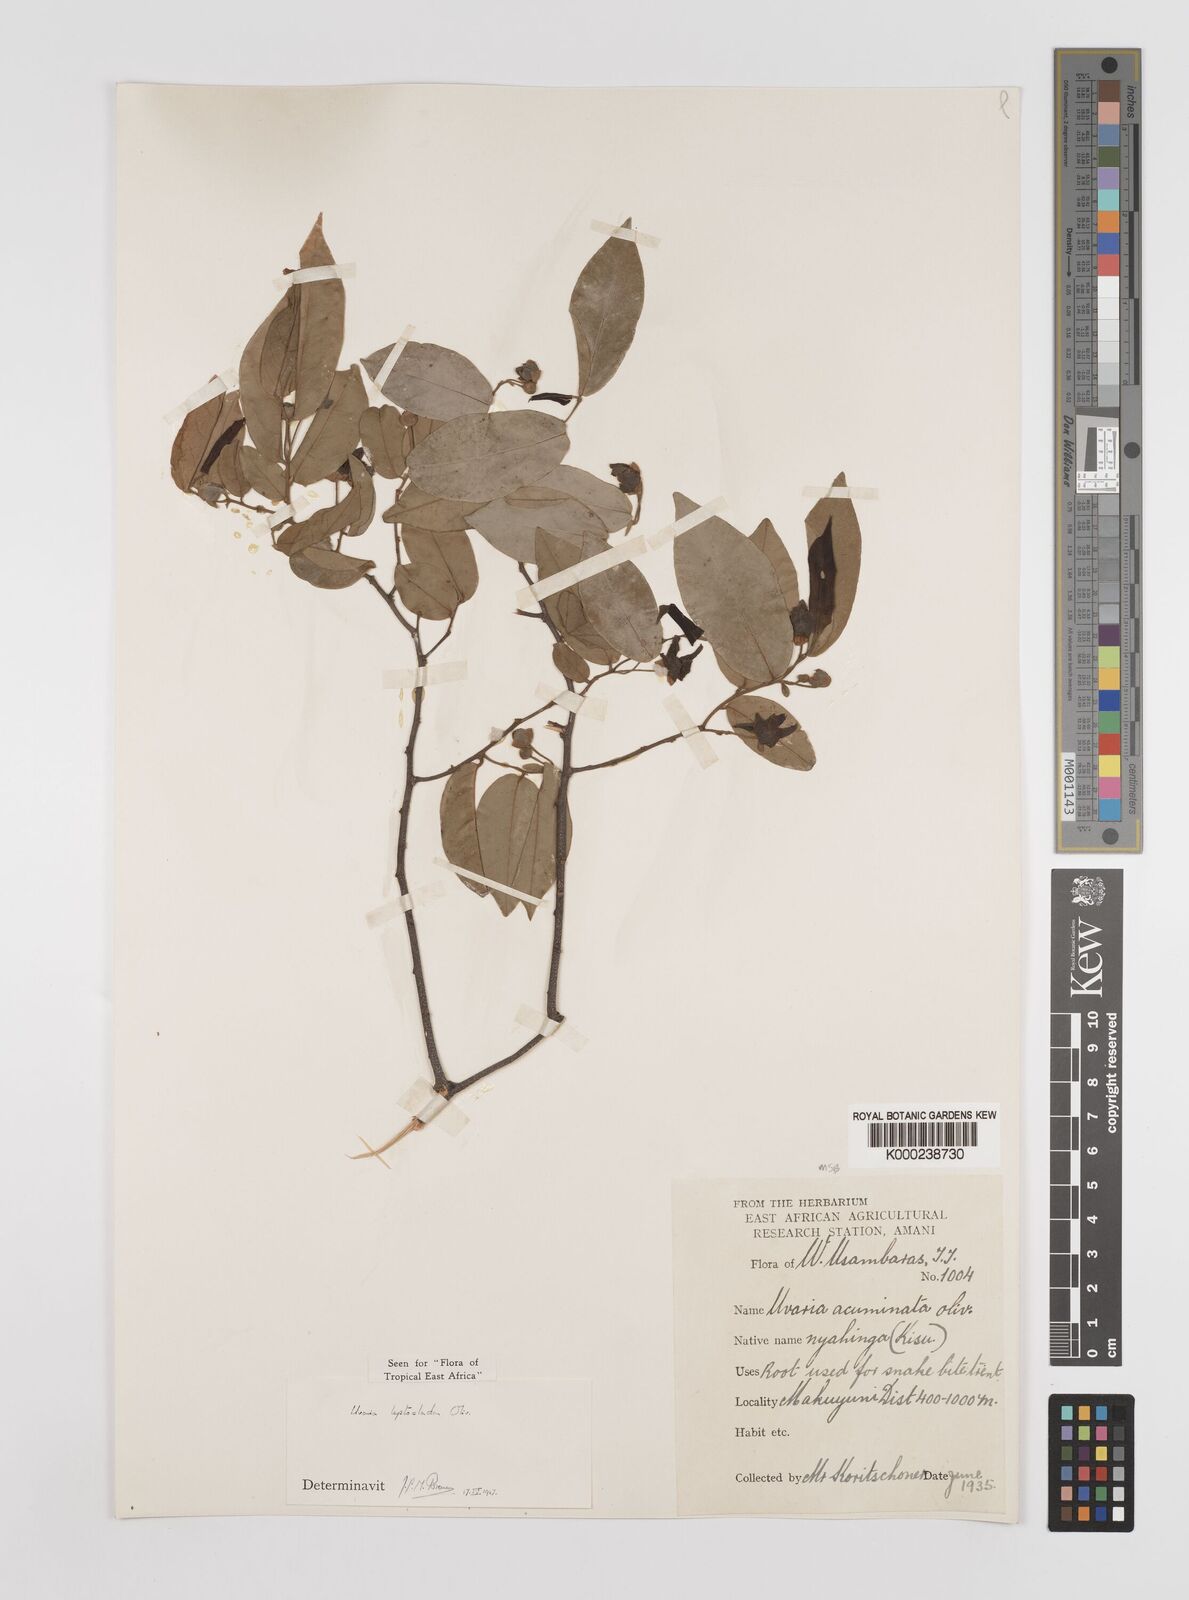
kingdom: Plantae
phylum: Tracheophyta
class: Magnoliopsida
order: Magnoliales
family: Annonaceae
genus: Uvaria
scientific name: Uvaria leptocladon
